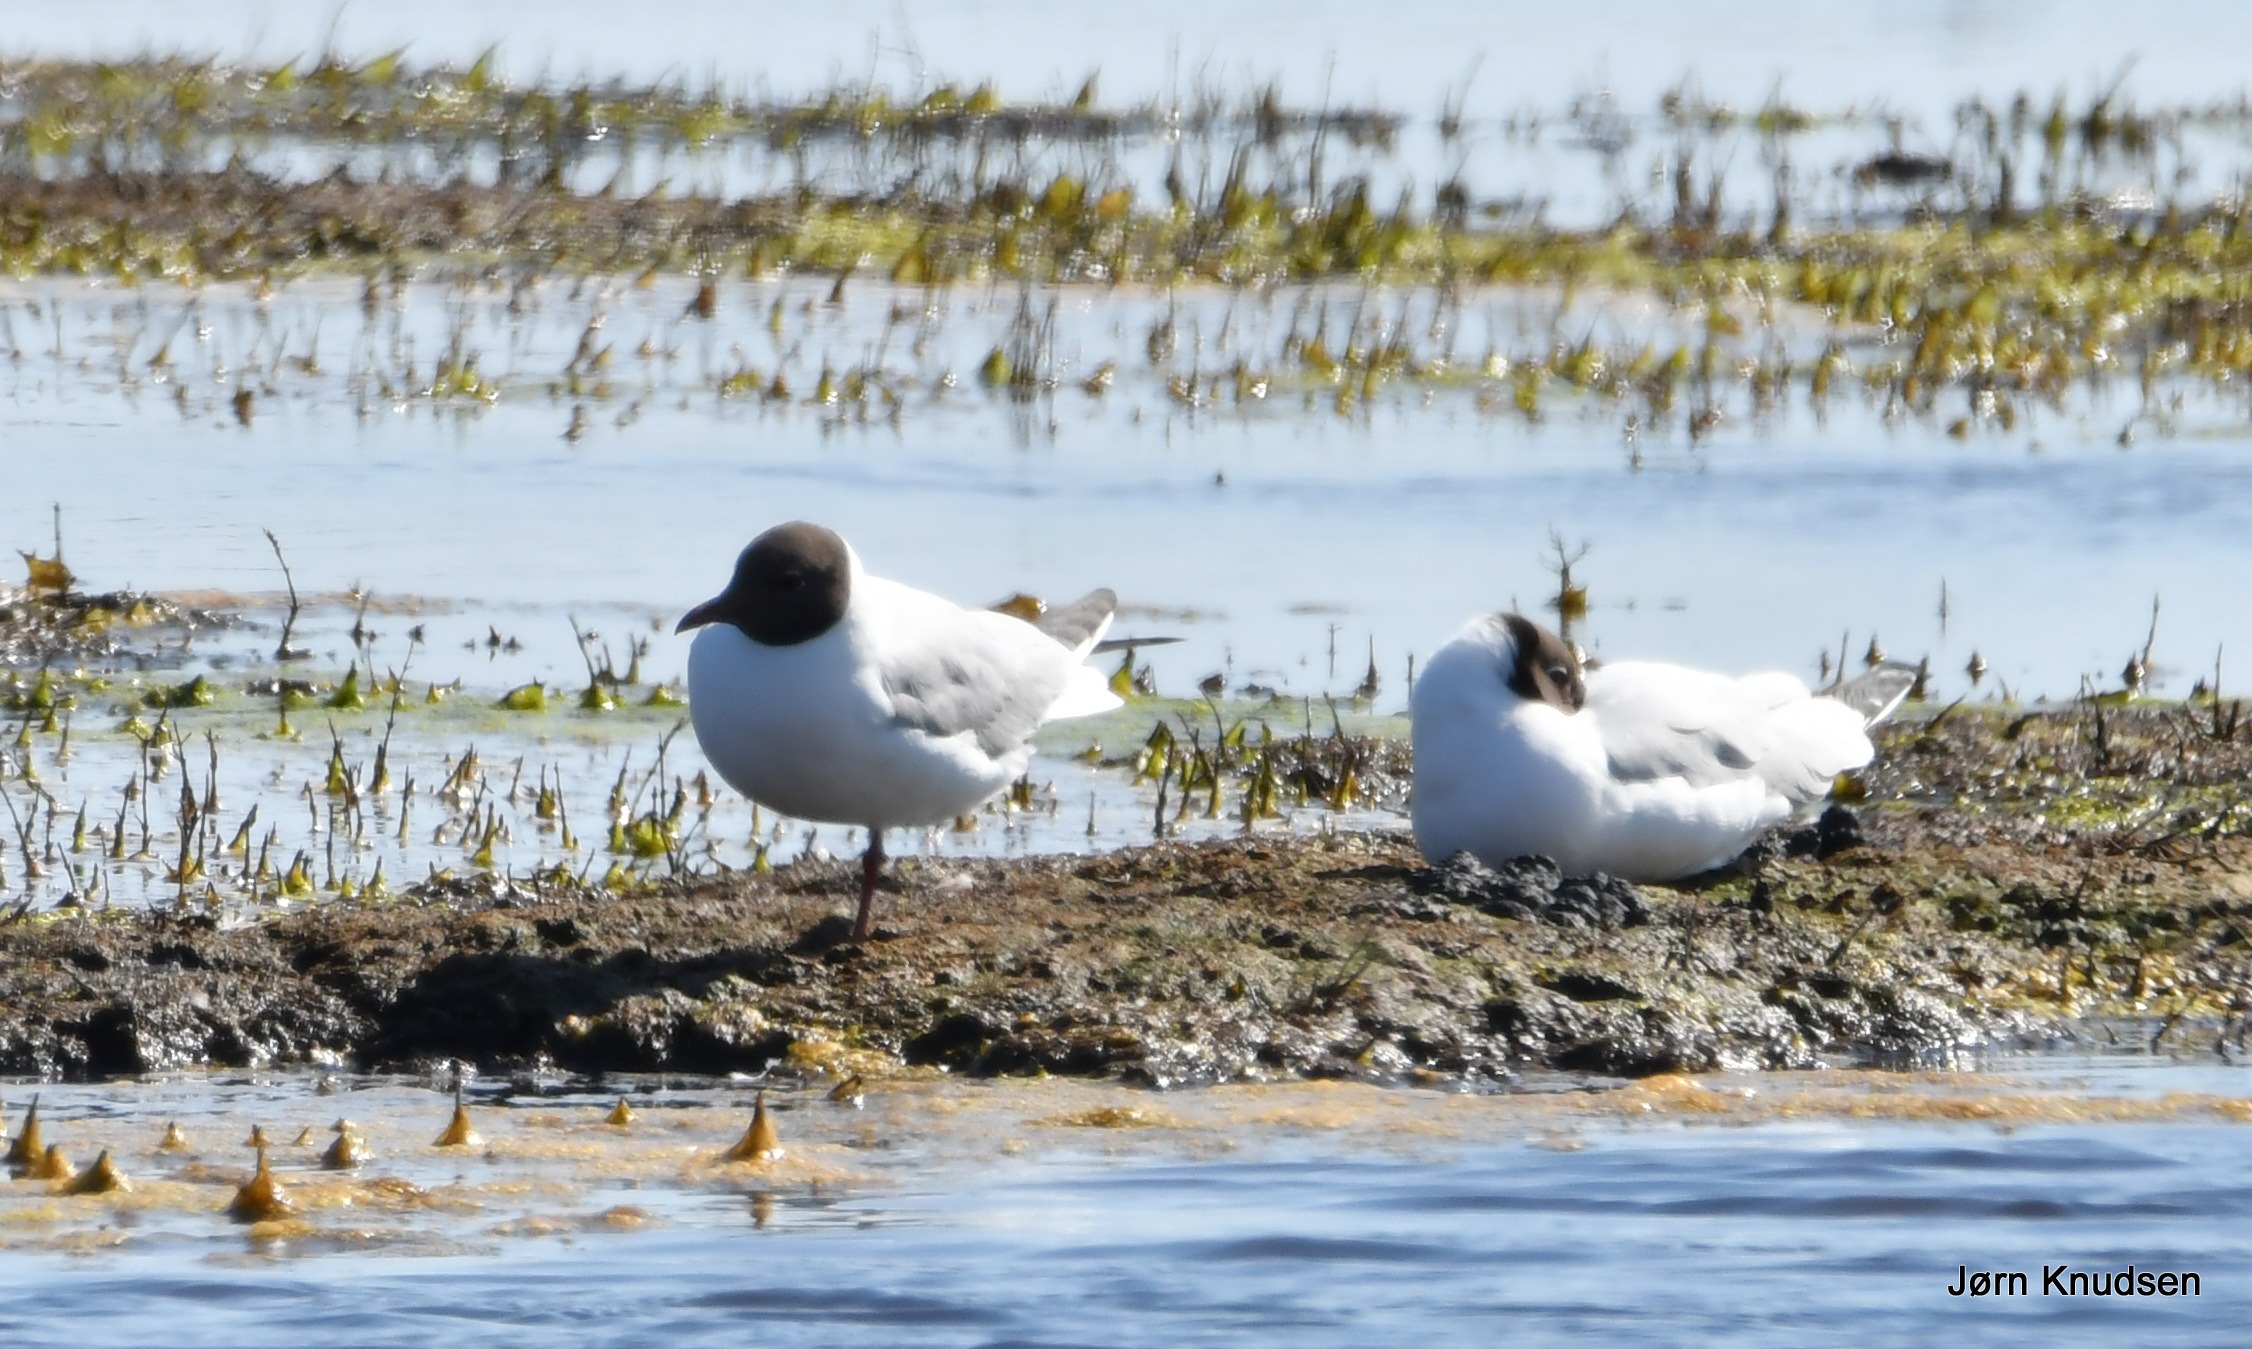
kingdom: Animalia
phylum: Chordata
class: Aves
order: Charadriiformes
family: Laridae
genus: Chroicocephalus
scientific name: Chroicocephalus ridibundus
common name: Hættemåge
